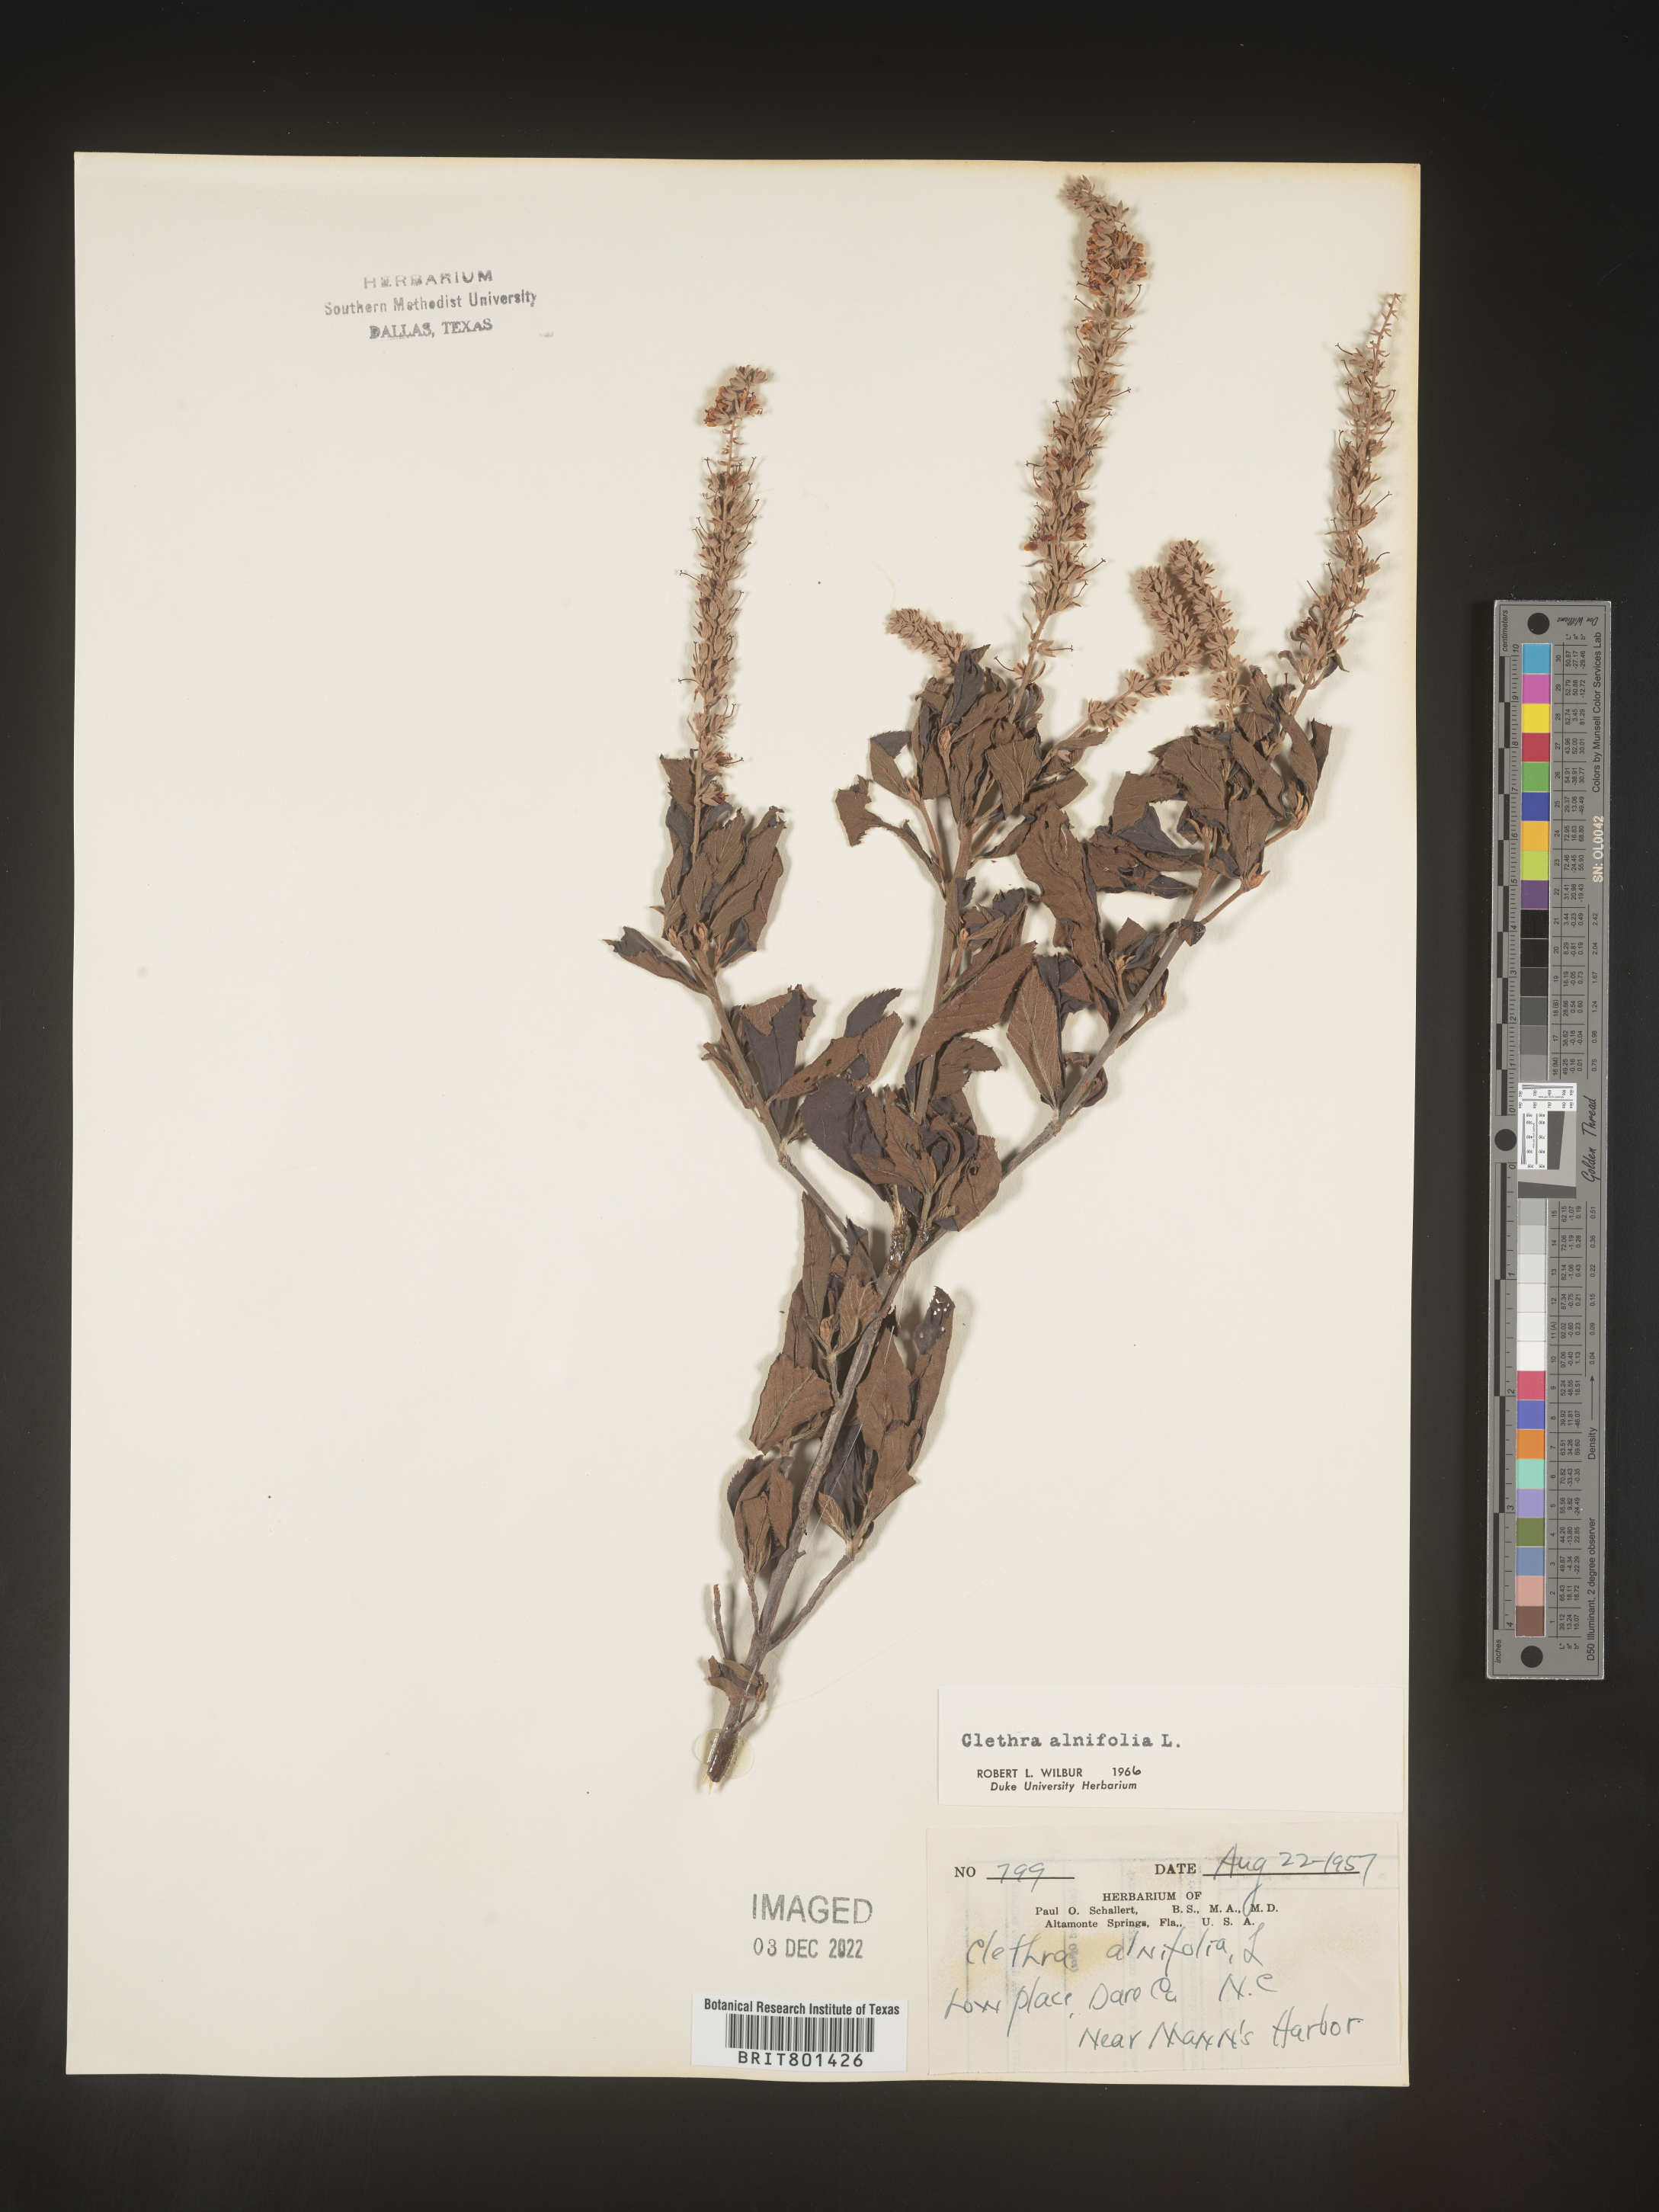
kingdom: Plantae
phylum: Tracheophyta
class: Magnoliopsida
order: Ericales
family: Clethraceae
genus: Clethra
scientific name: Clethra alnifolia
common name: Sweet pepperbush
